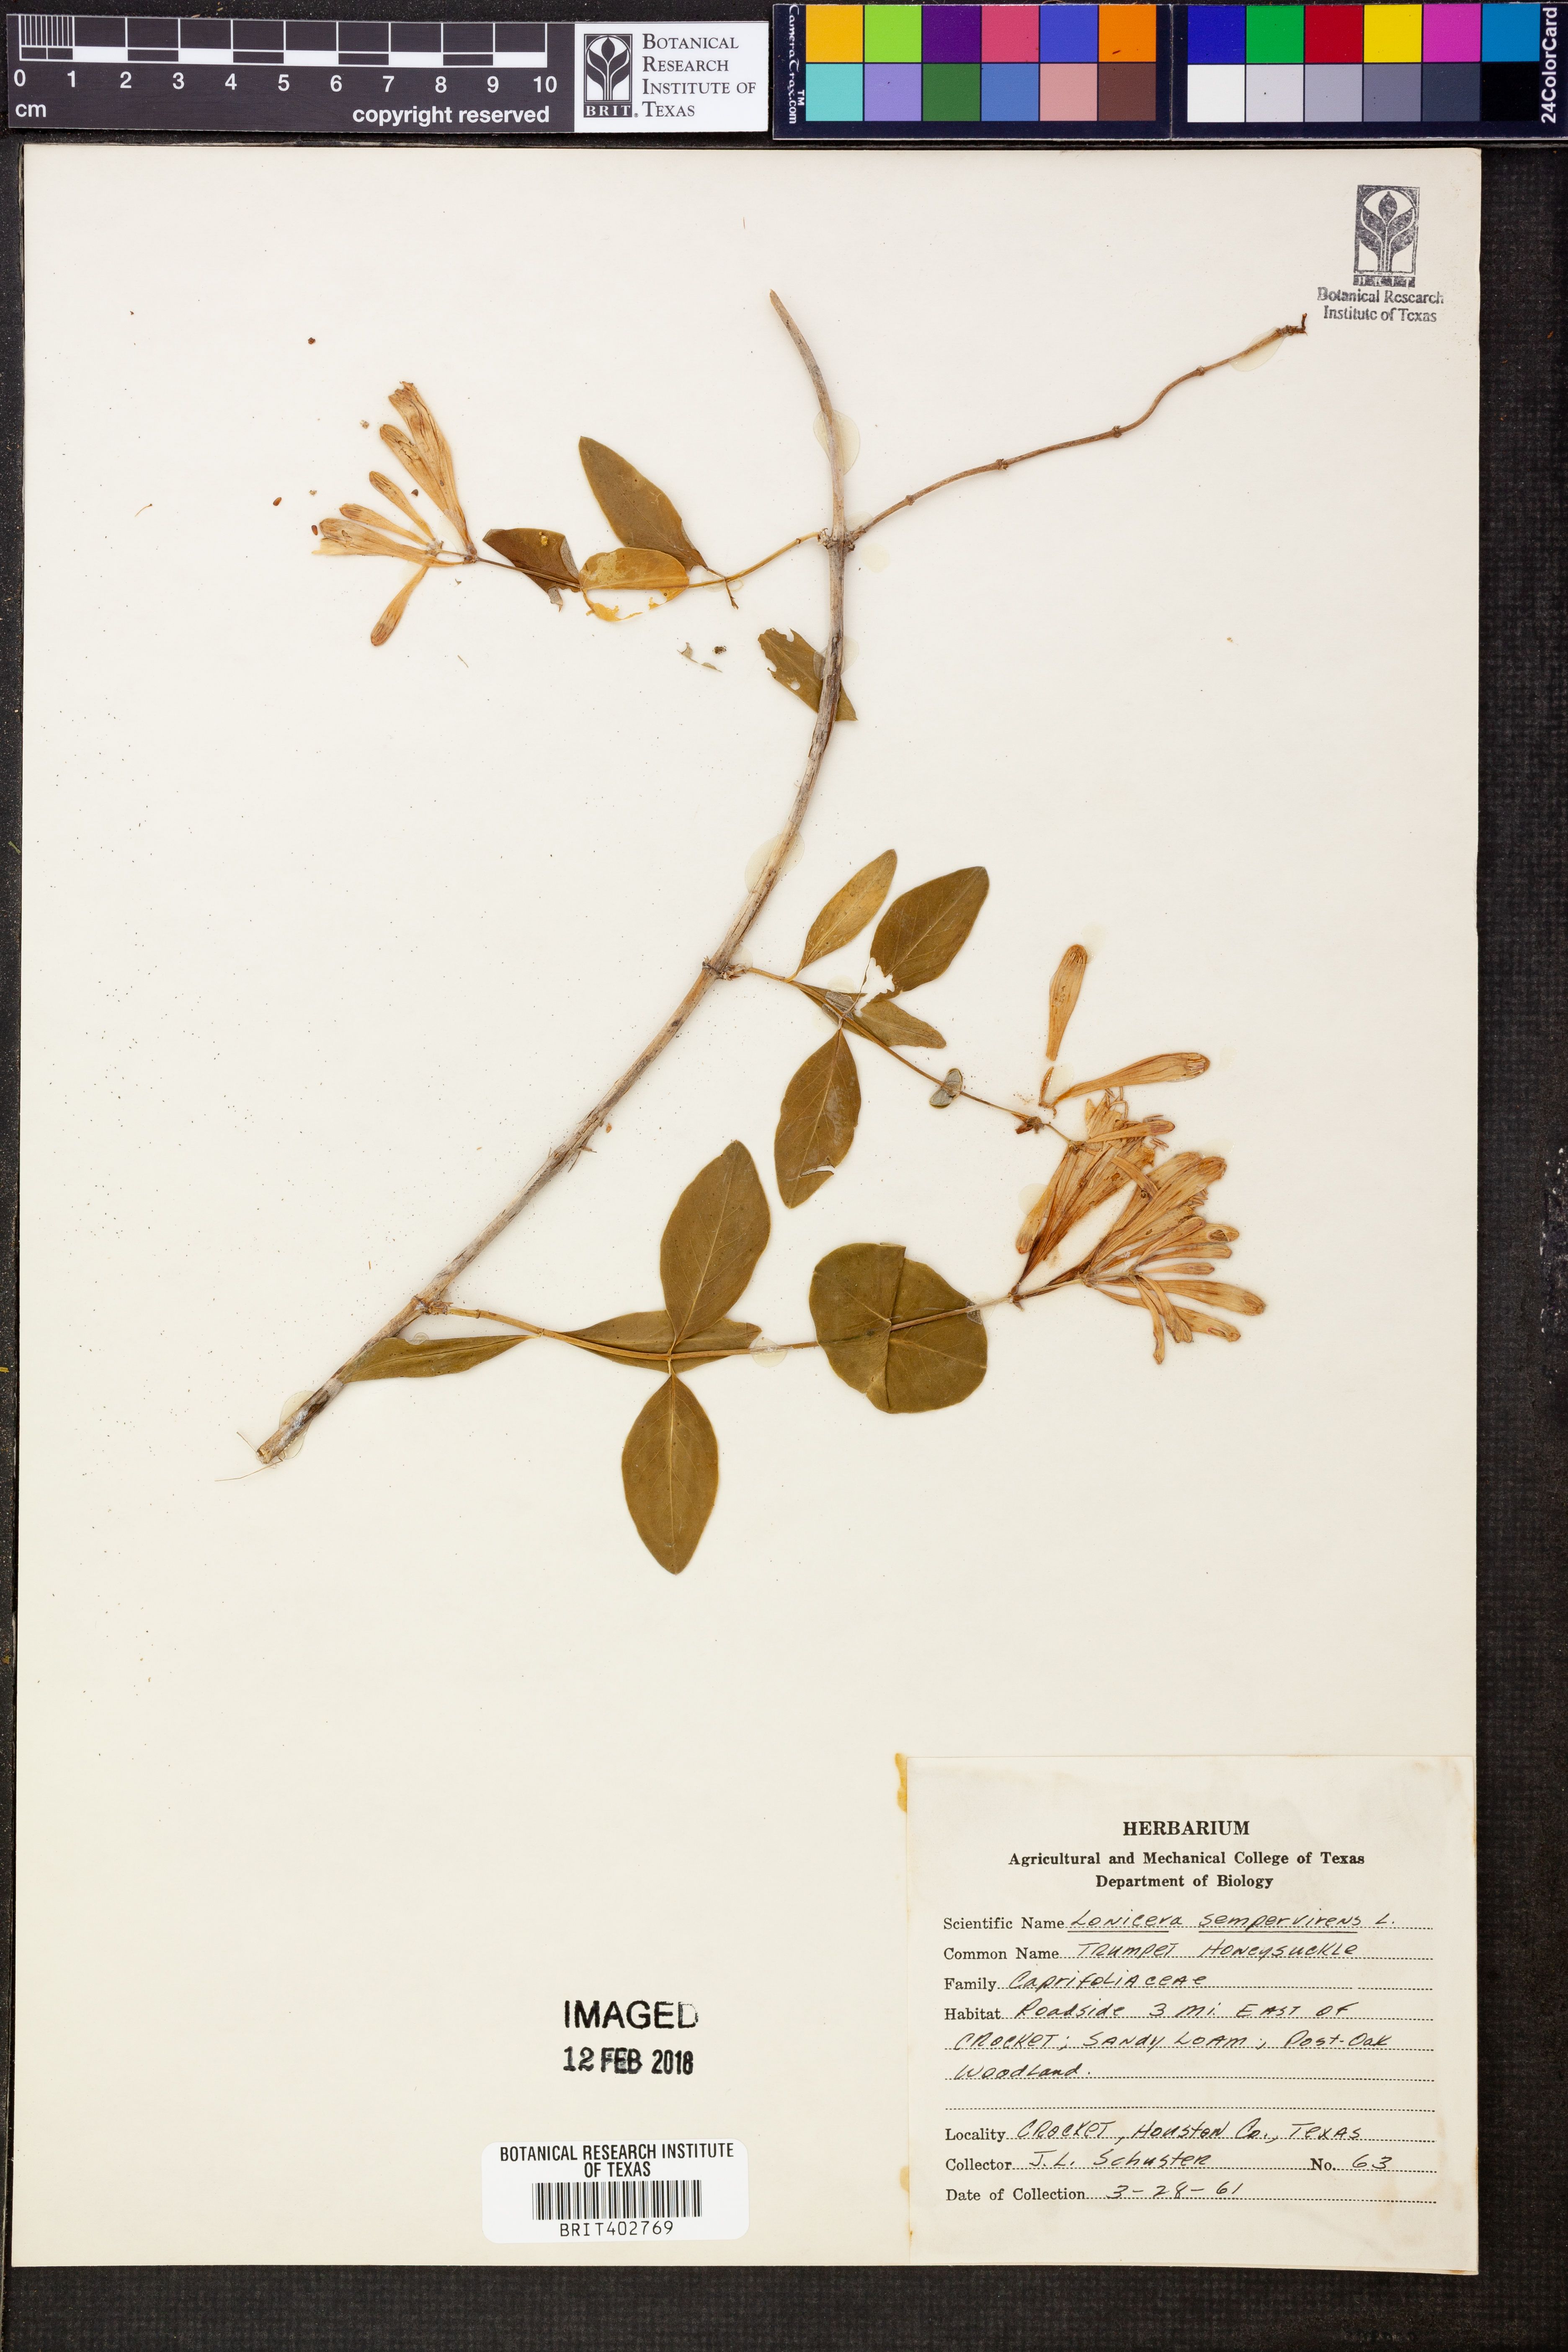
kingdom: Plantae
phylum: Tracheophyta
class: Magnoliopsida
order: Dipsacales
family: Caprifoliaceae
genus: Lonicera
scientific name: Lonicera sempervirens
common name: Coral honeysuckle
